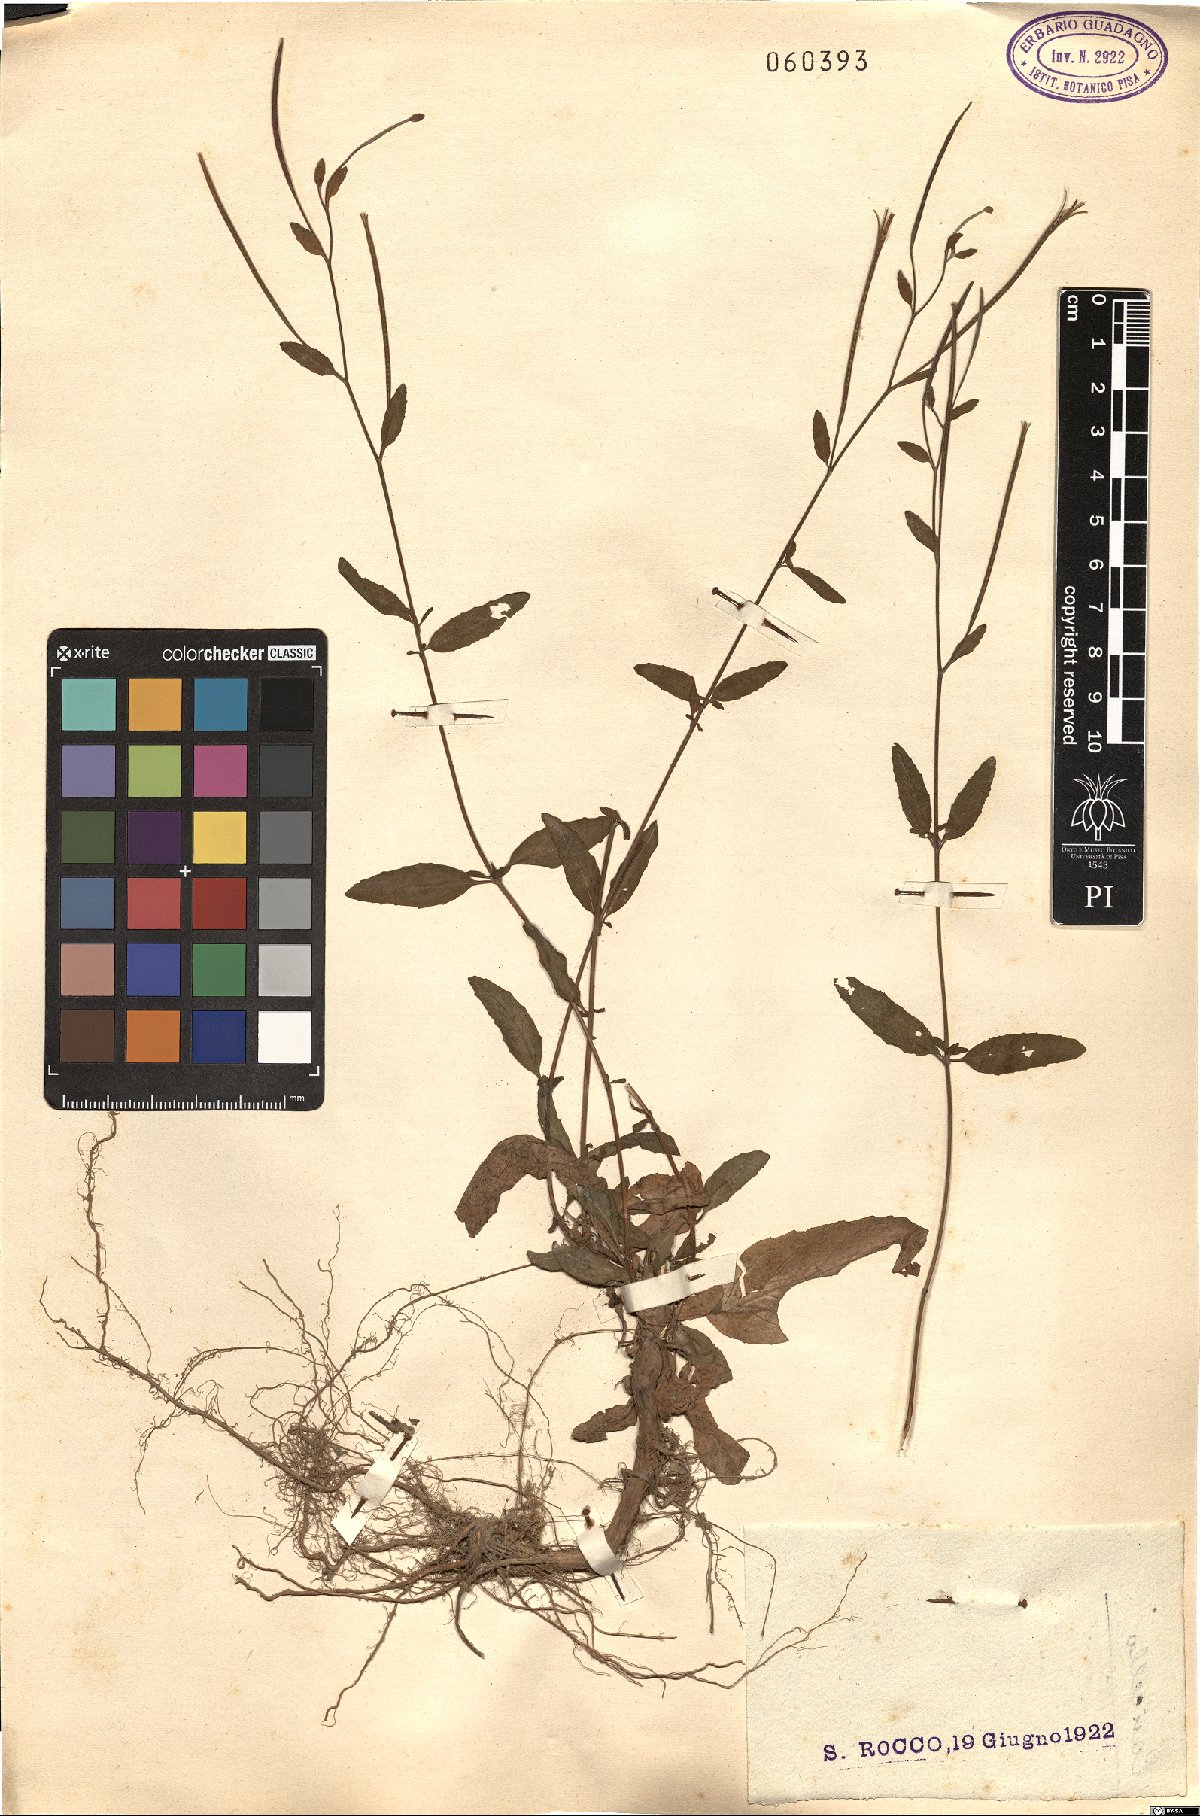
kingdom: Plantae
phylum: Tracheophyta
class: Magnoliopsida
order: Myrtales
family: Onagraceae
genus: Epilobium
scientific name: Epilobium
